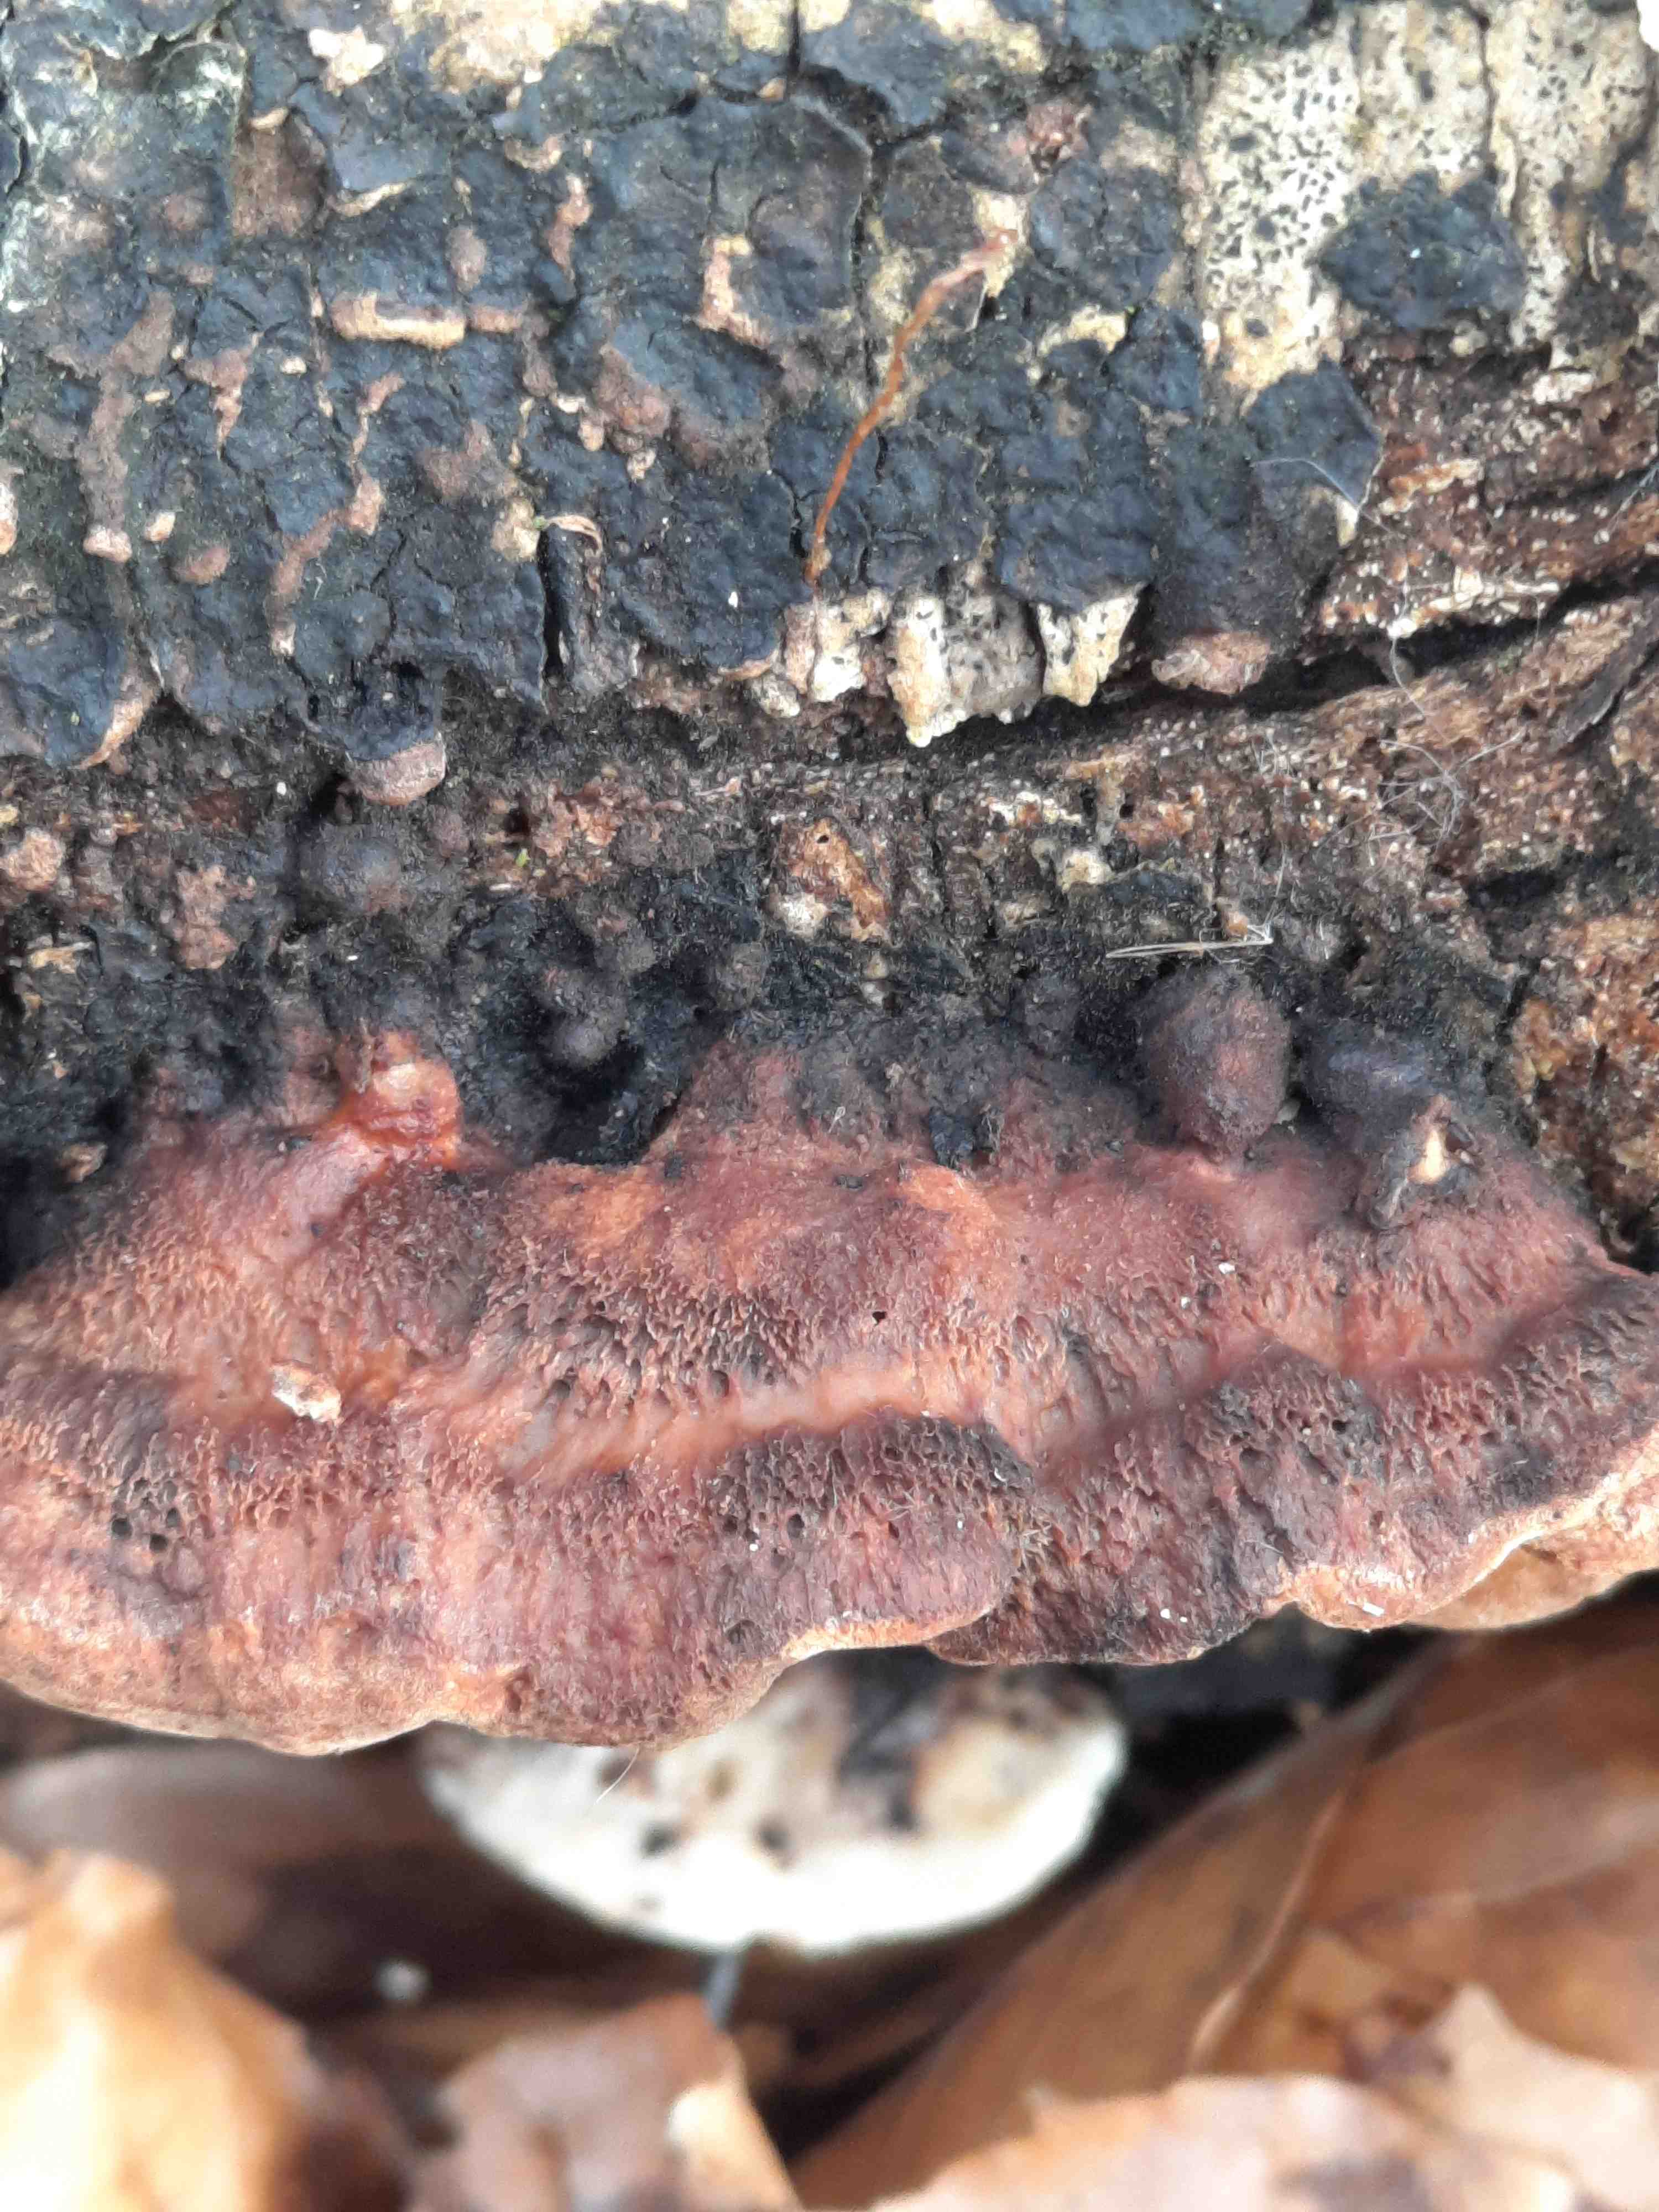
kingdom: Fungi
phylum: Basidiomycota
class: Agaricomycetes
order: Polyporales
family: Incrustoporiaceae
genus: Skeletocutis
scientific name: Skeletocutis nemoralis
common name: stor krystalporesvamp
